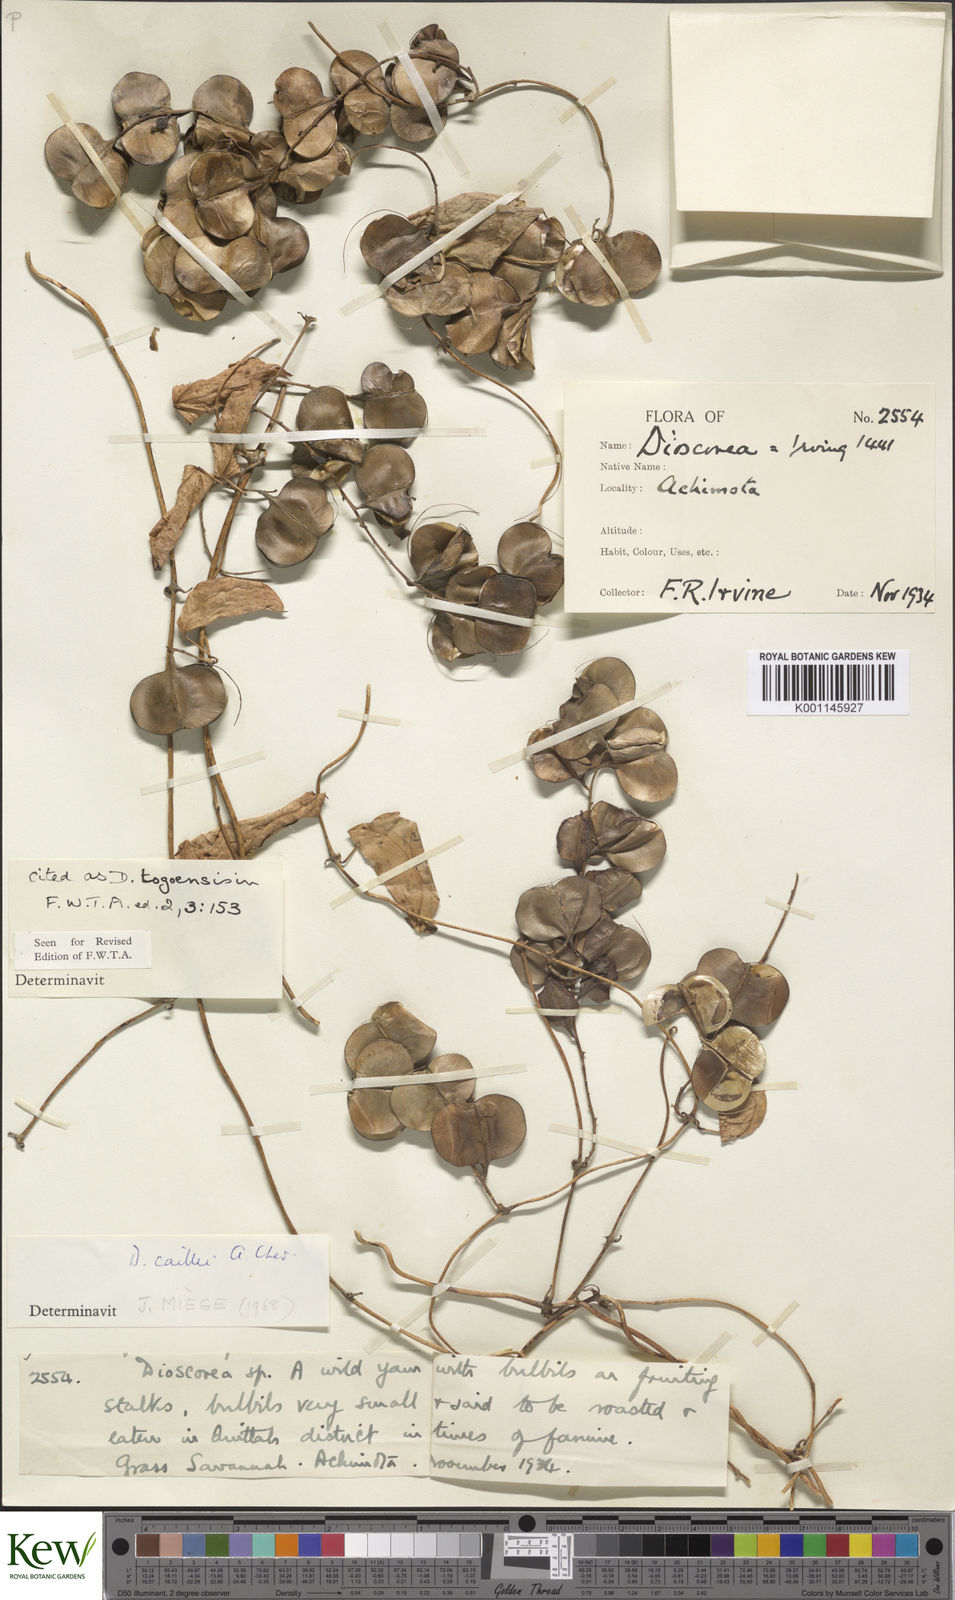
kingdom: Plantae
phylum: Tracheophyta
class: Liliopsida
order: Dioscoreales
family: Dioscoreaceae
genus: Dioscorea
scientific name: Dioscorea togoensis
